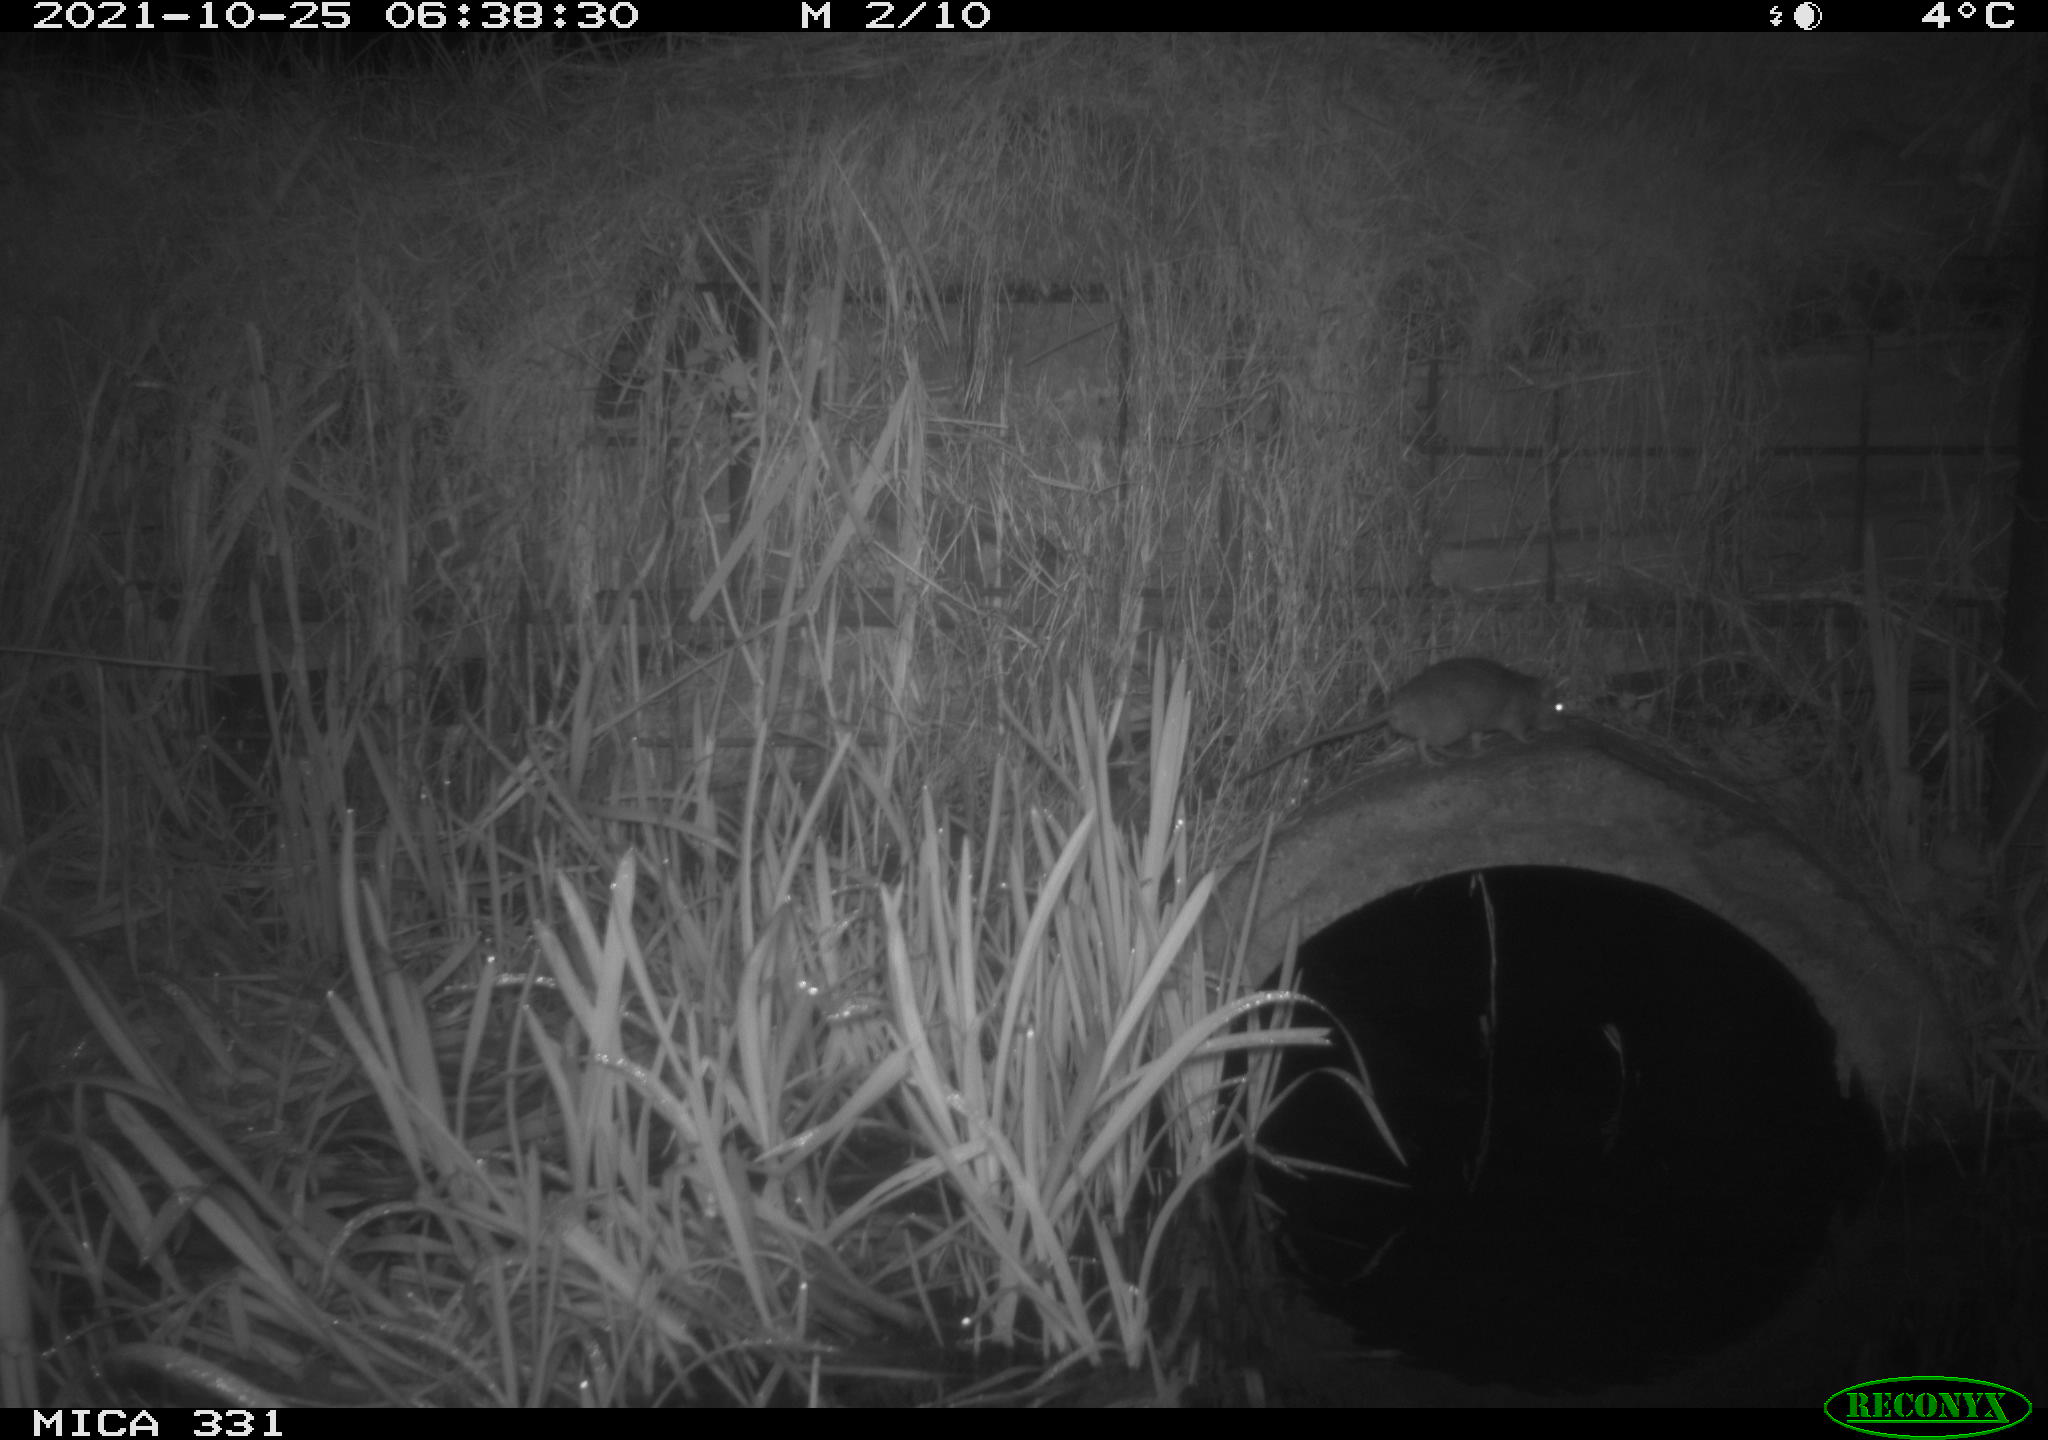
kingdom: Animalia
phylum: Chordata
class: Mammalia
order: Rodentia
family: Muridae
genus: Rattus
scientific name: Rattus norvegicus
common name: Brown rat
